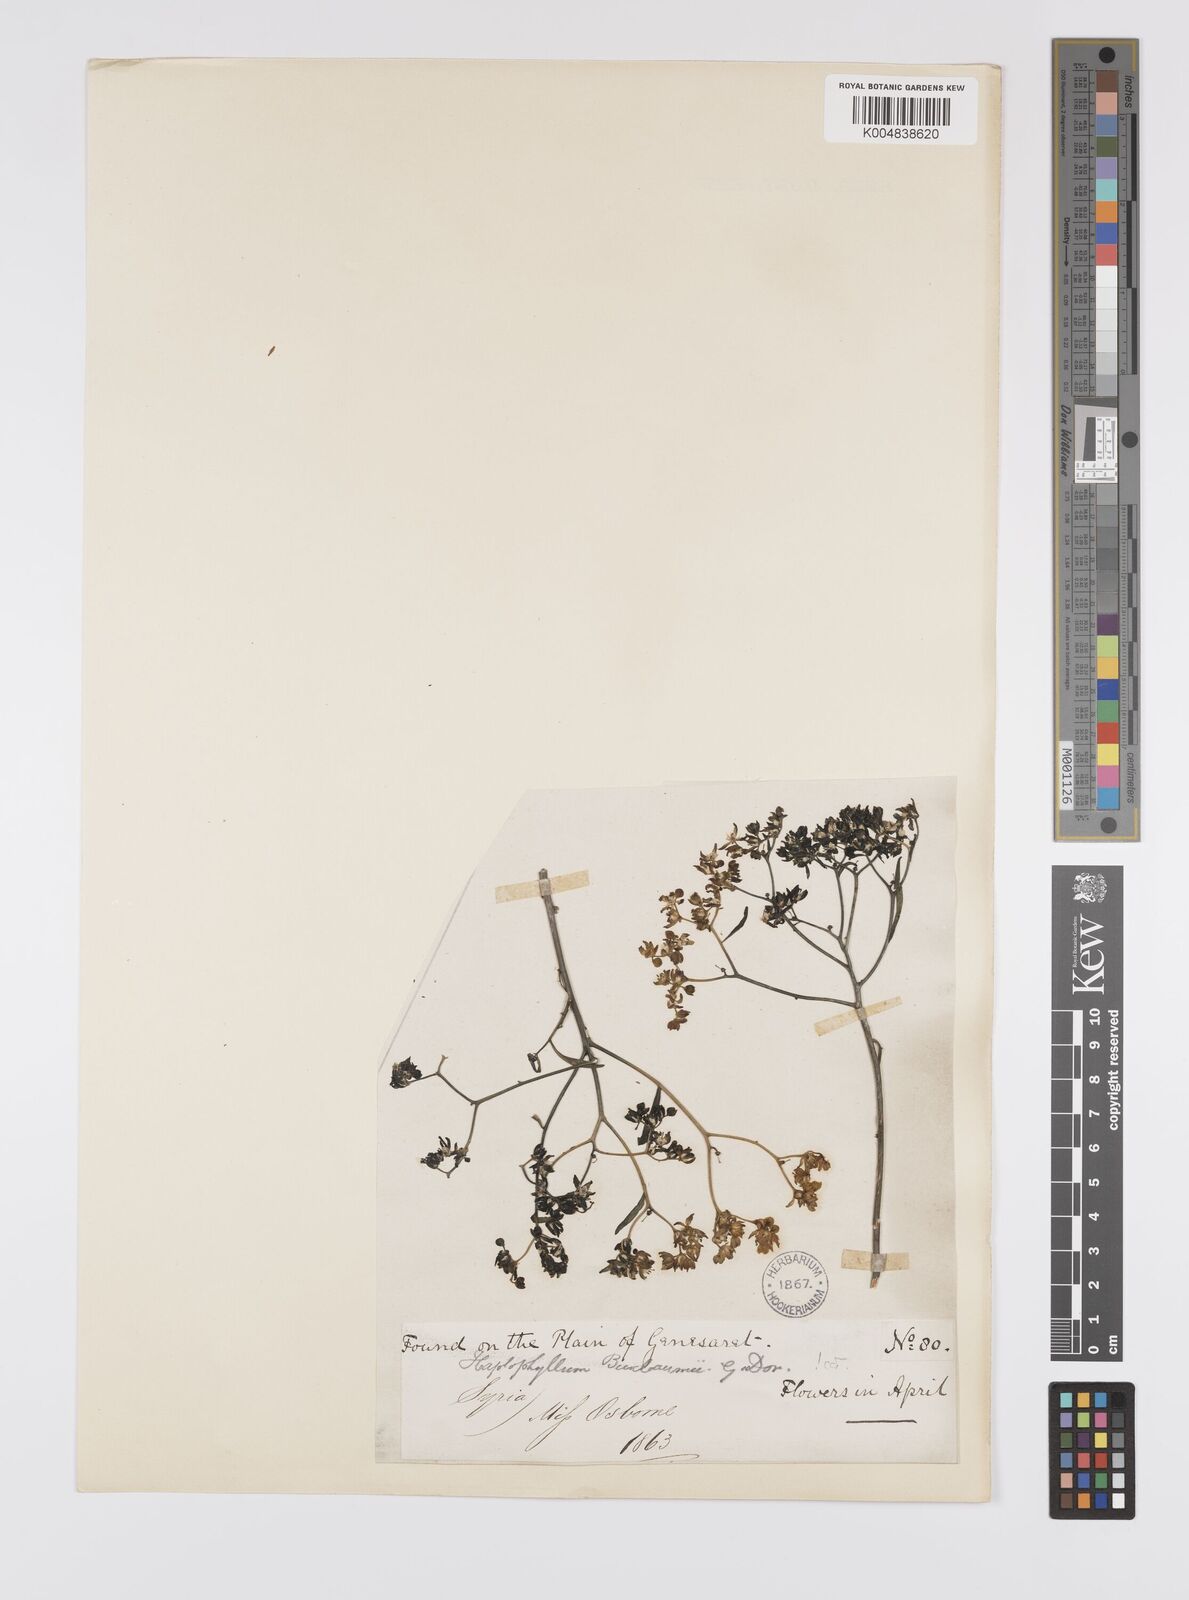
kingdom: Plantae
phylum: Tracheophyta
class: Magnoliopsida
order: Sapindales
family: Rutaceae
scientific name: Rutaceae
